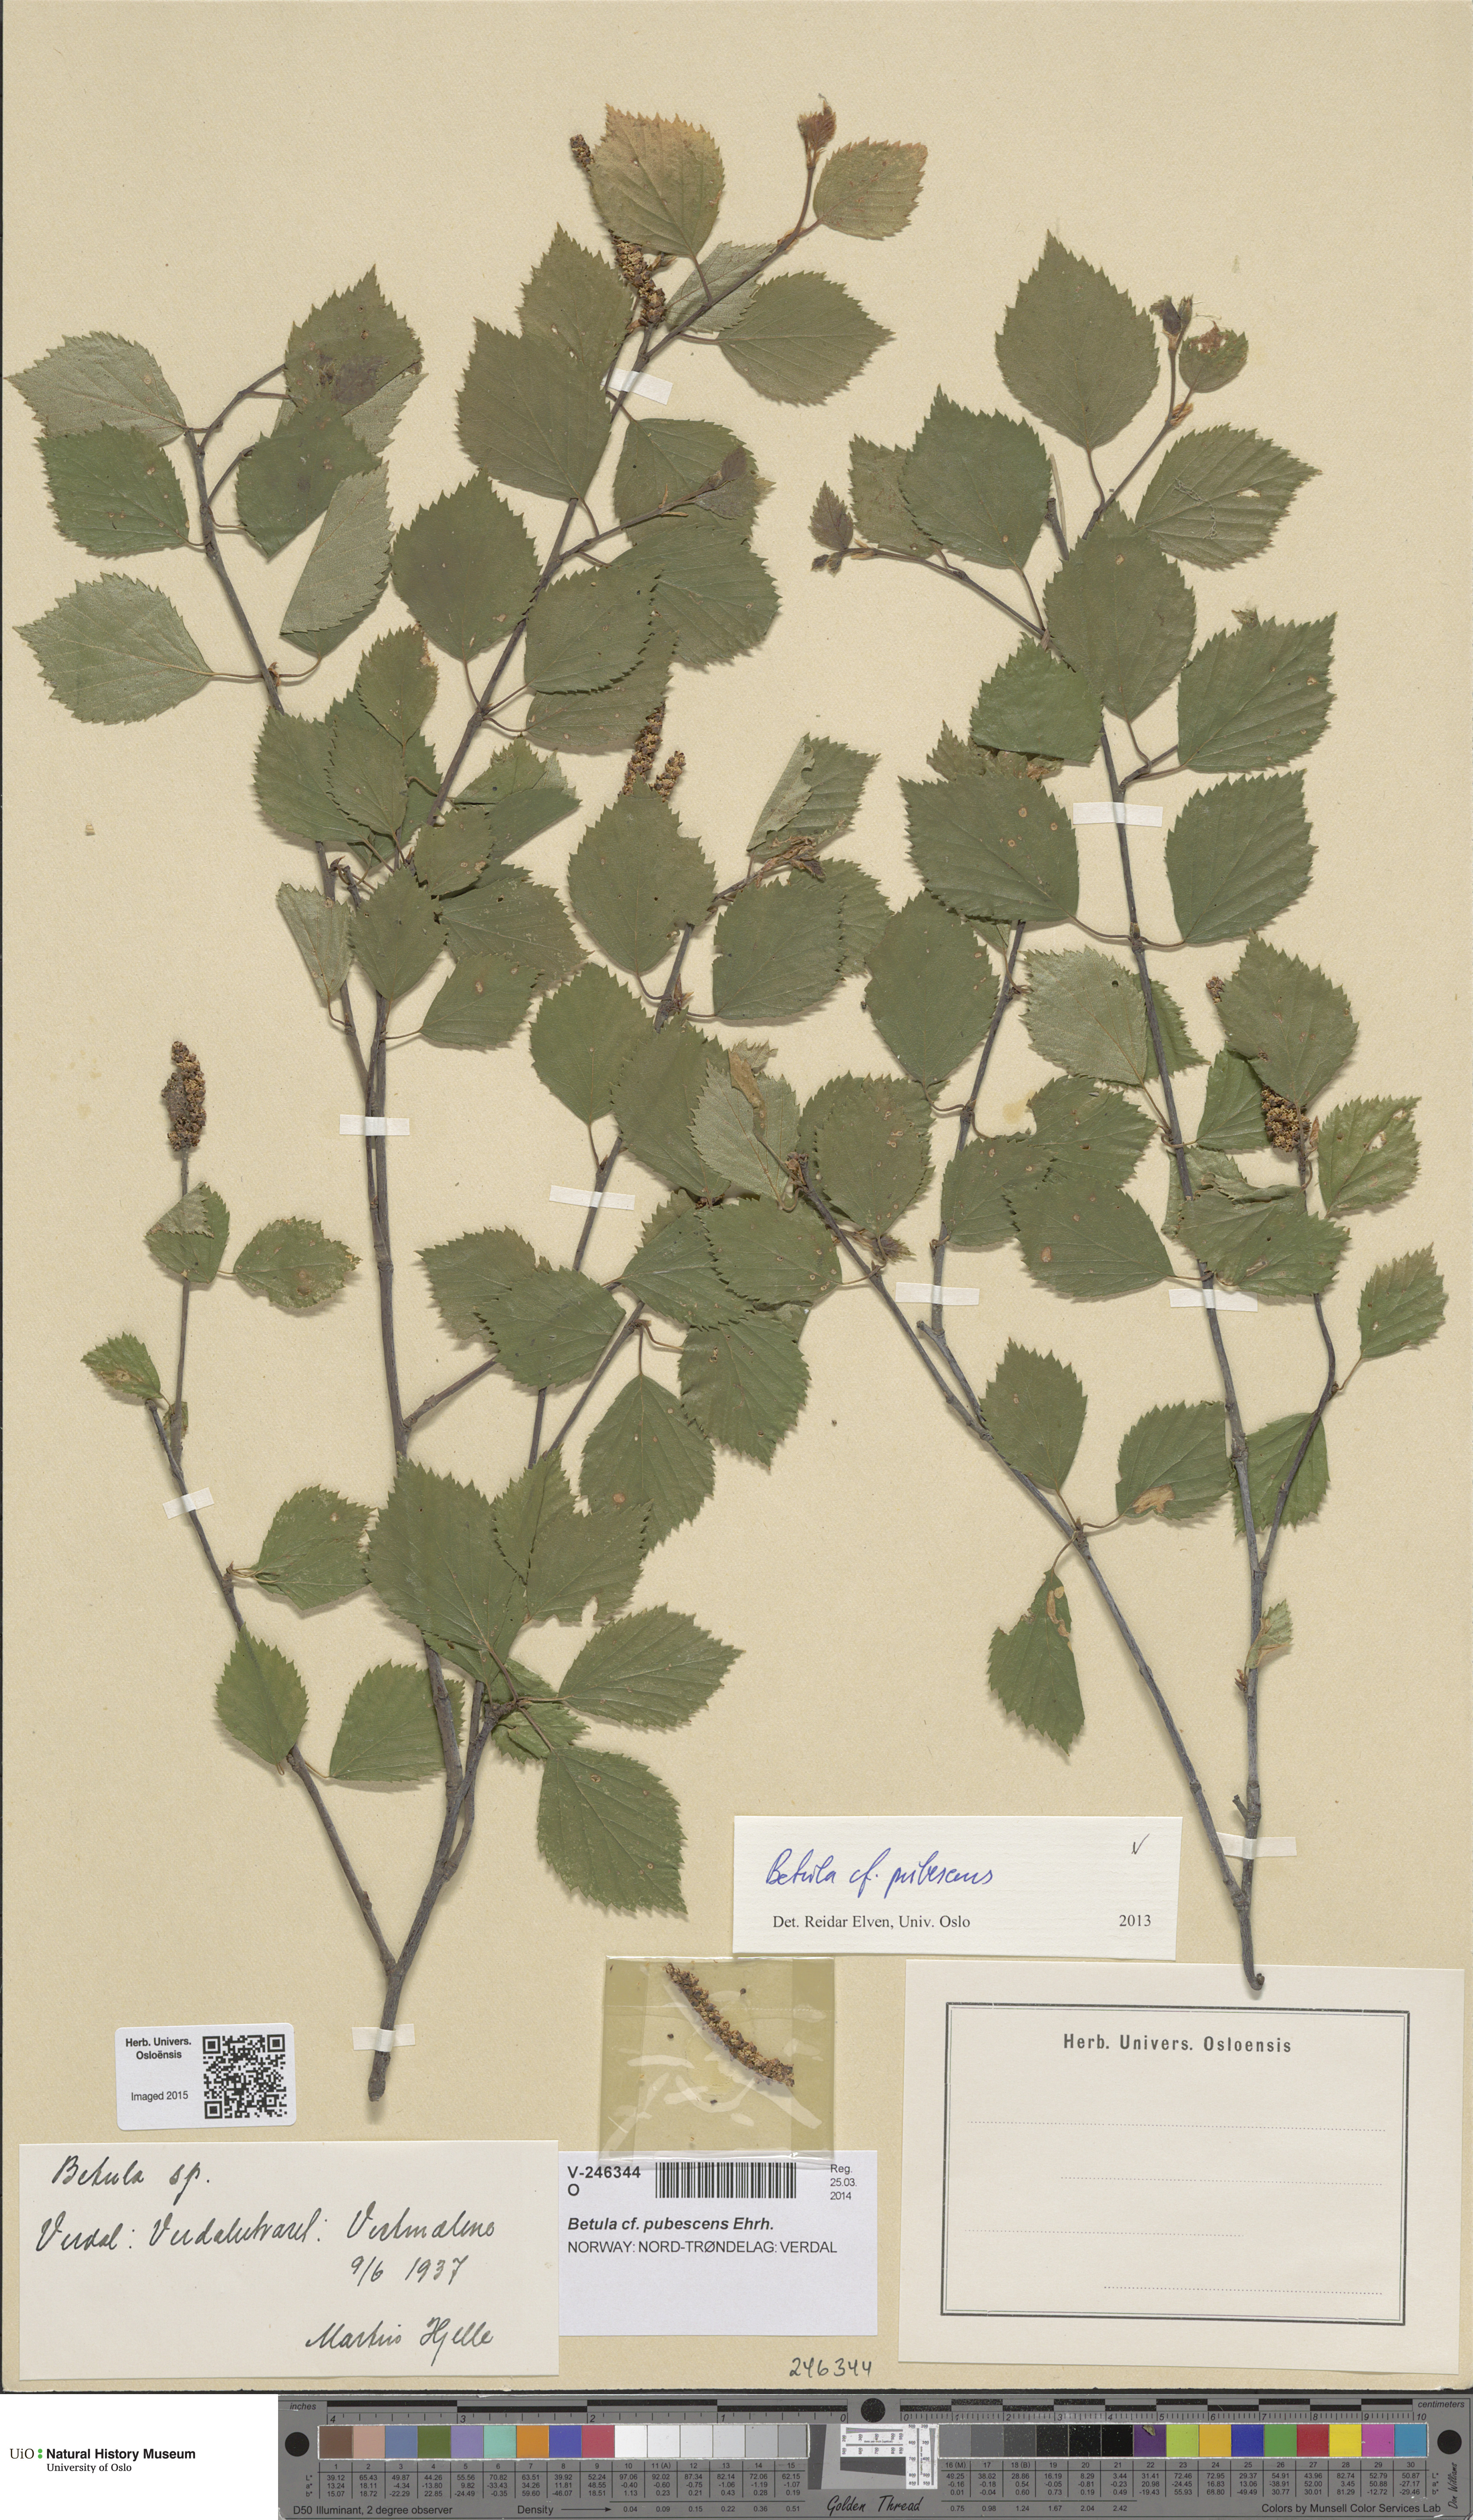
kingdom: Plantae
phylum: Tracheophyta
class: Magnoliopsida
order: Fagales
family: Betulaceae
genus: Betula
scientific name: Betula pubescens
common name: Downy birch
